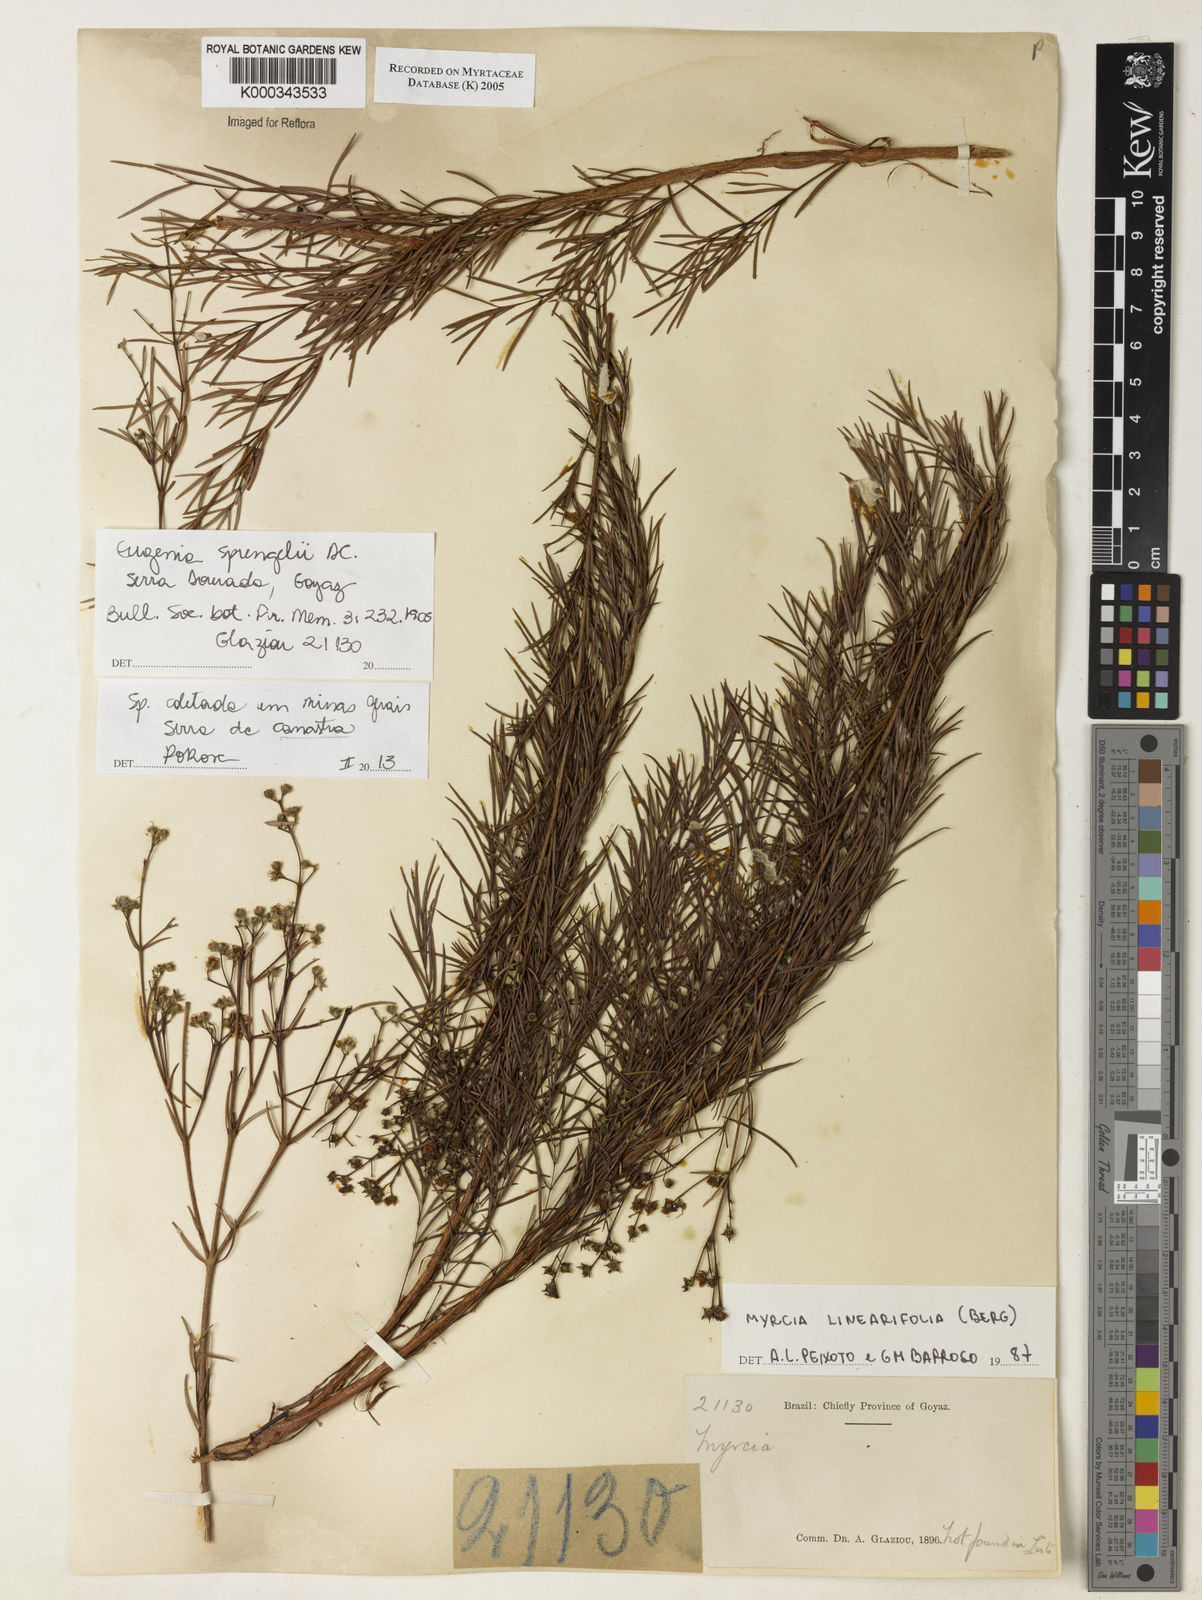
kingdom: Plantae
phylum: Tracheophyta
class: Magnoliopsida
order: Myrtales
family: Myrtaceae
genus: Myrcia
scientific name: Myrcia linearifolia
